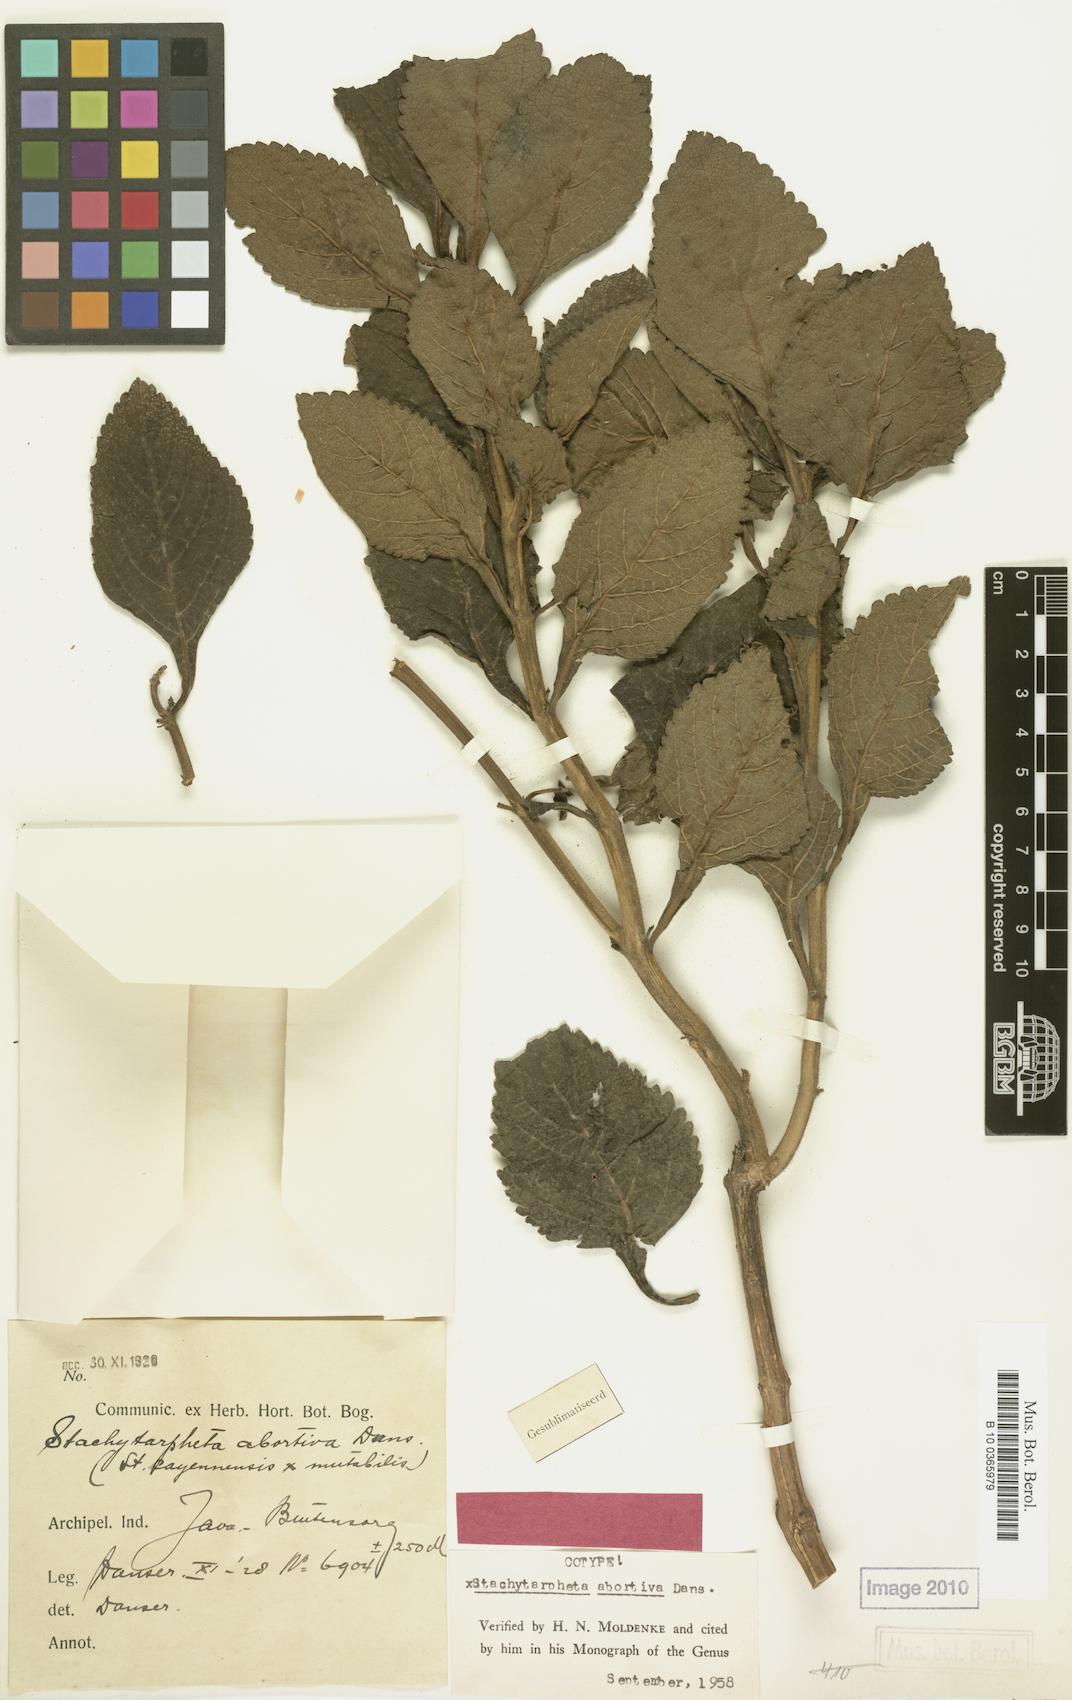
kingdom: Plantae
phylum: Tracheophyta
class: Magnoliopsida
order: Lamiales
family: Verbenaceae
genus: Stachytarpheta
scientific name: Stachytarpheta abortiva
